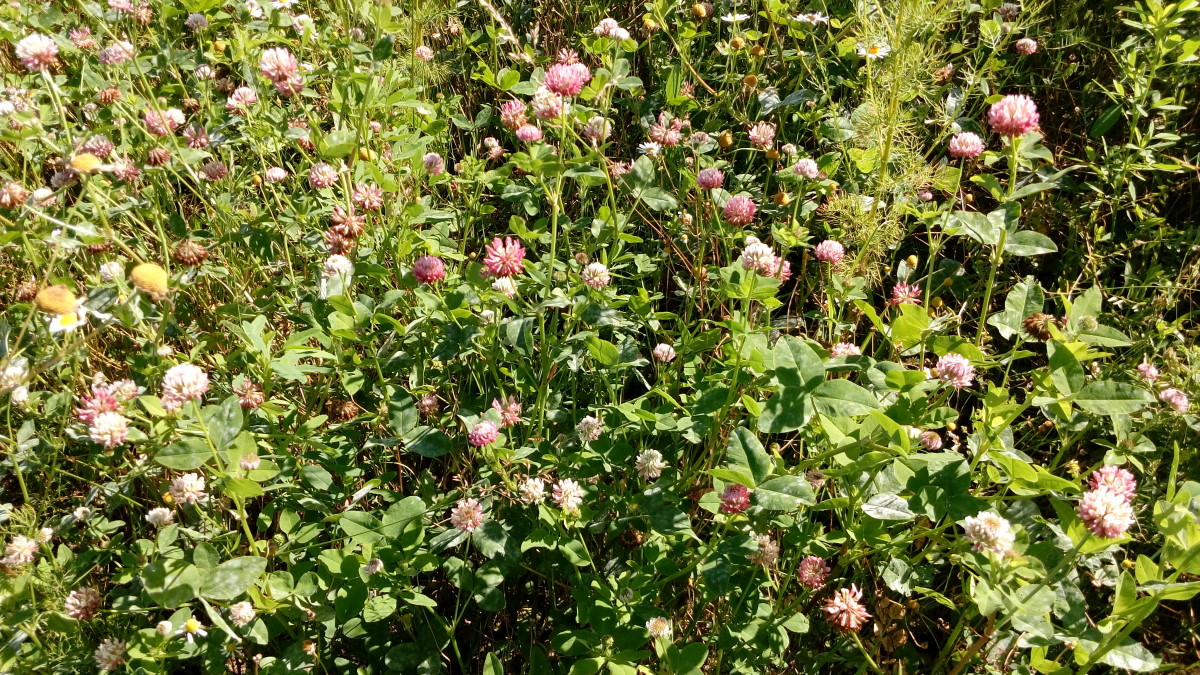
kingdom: Plantae
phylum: Tracheophyta
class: Magnoliopsida
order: Fabales
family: Fabaceae
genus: Trifolium
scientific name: Trifolium hybridum
